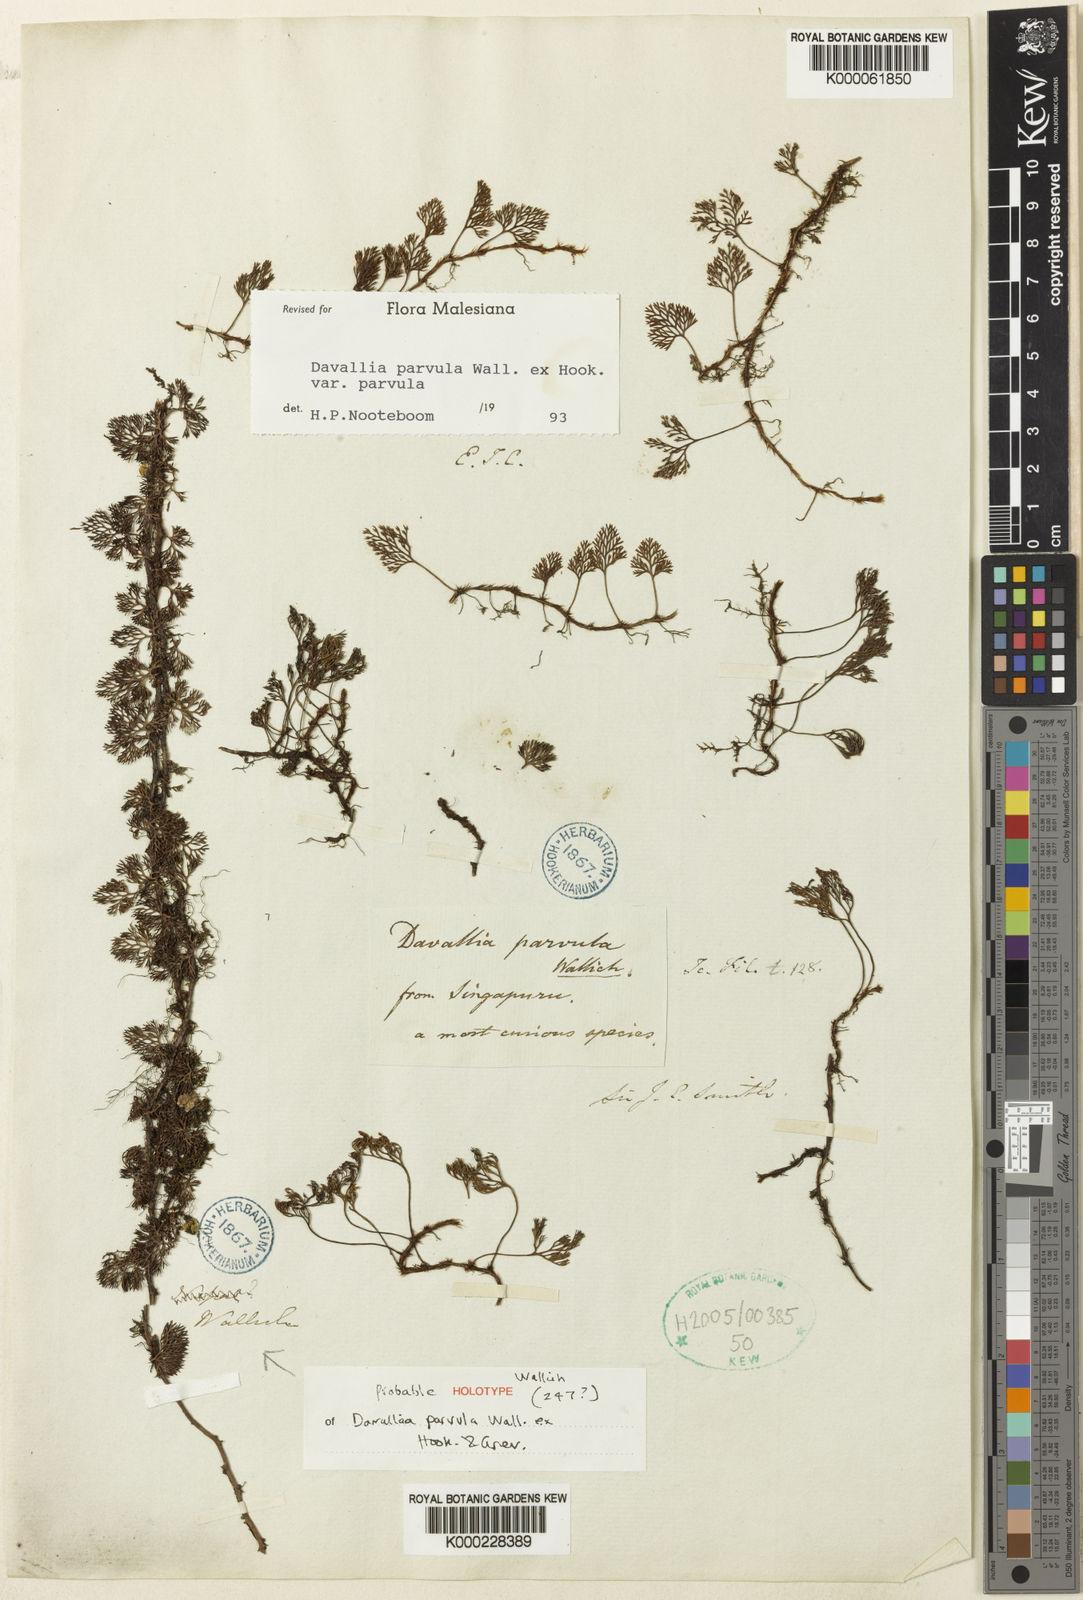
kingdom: Plantae
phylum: Tracheophyta
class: Polypodiopsida
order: Polypodiales
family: Davalliaceae
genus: Davallia
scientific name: Davallia parvula
